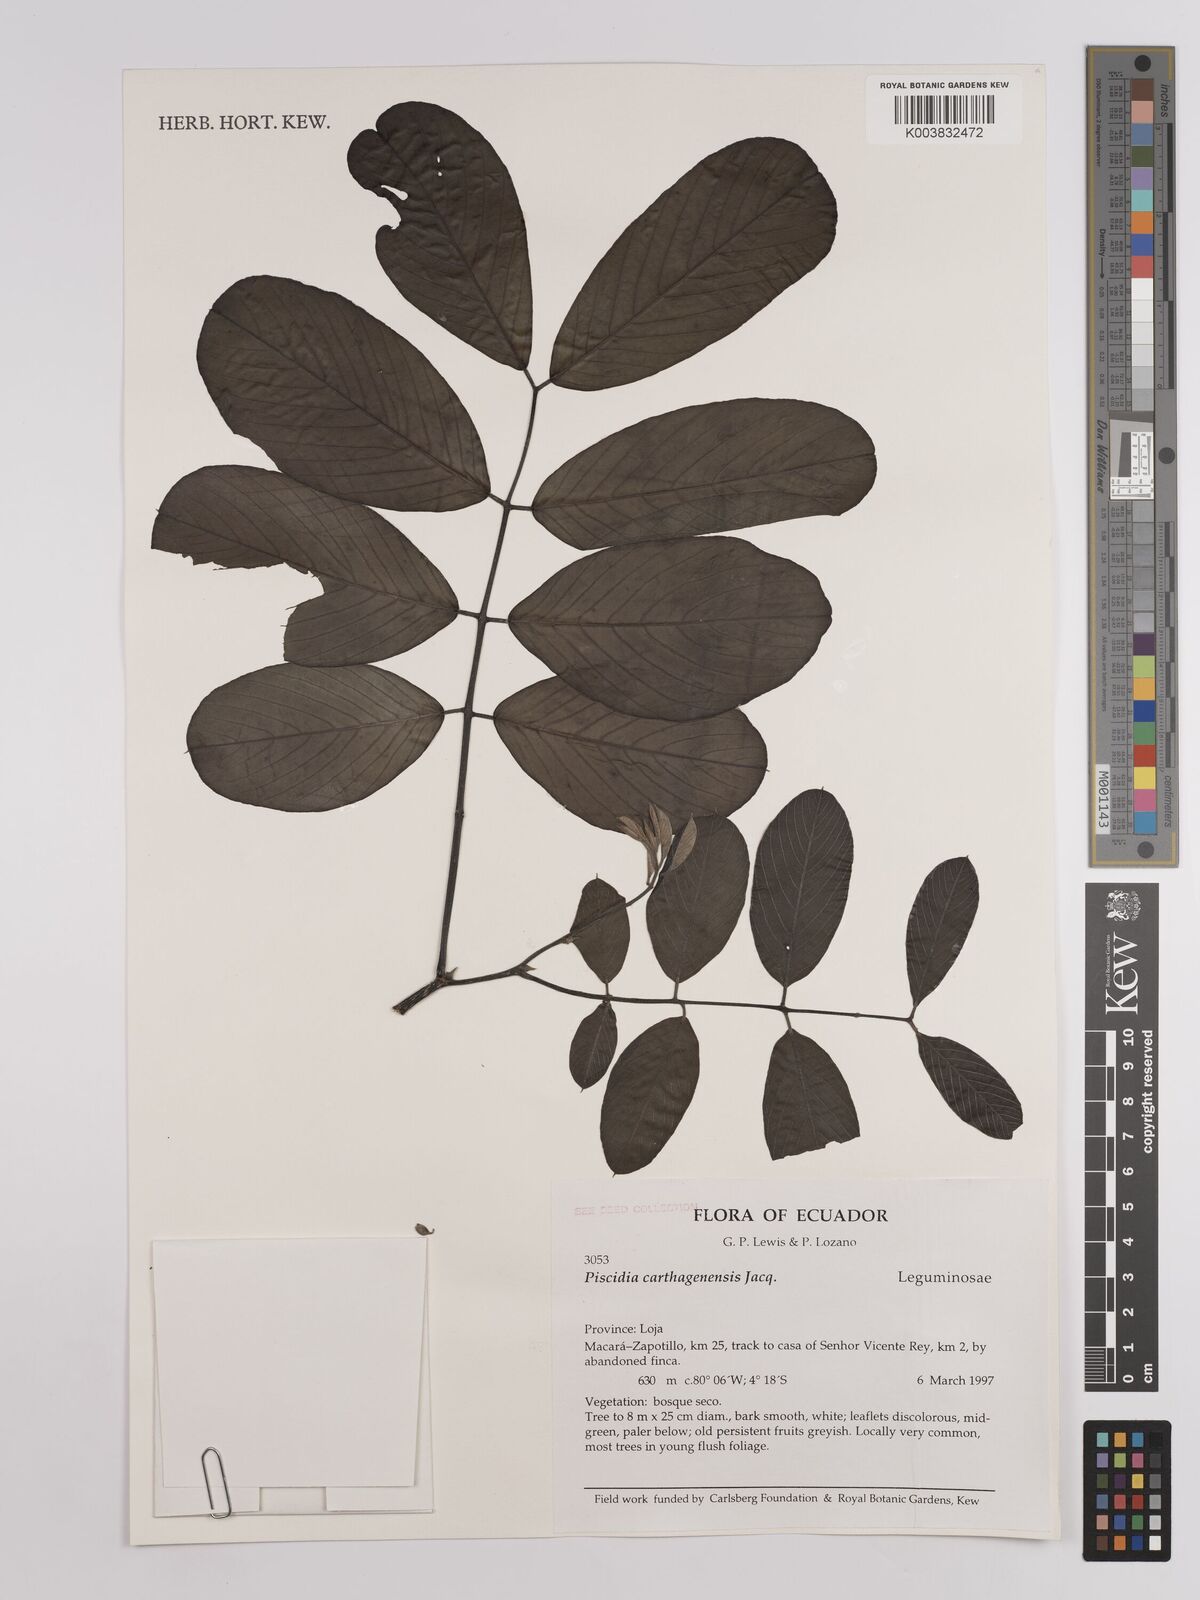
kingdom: Plantae
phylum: Tracheophyta
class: Magnoliopsida
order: Fabales
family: Fabaceae
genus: Piscidia
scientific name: Piscidia carthagenensis
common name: Stinkwood
